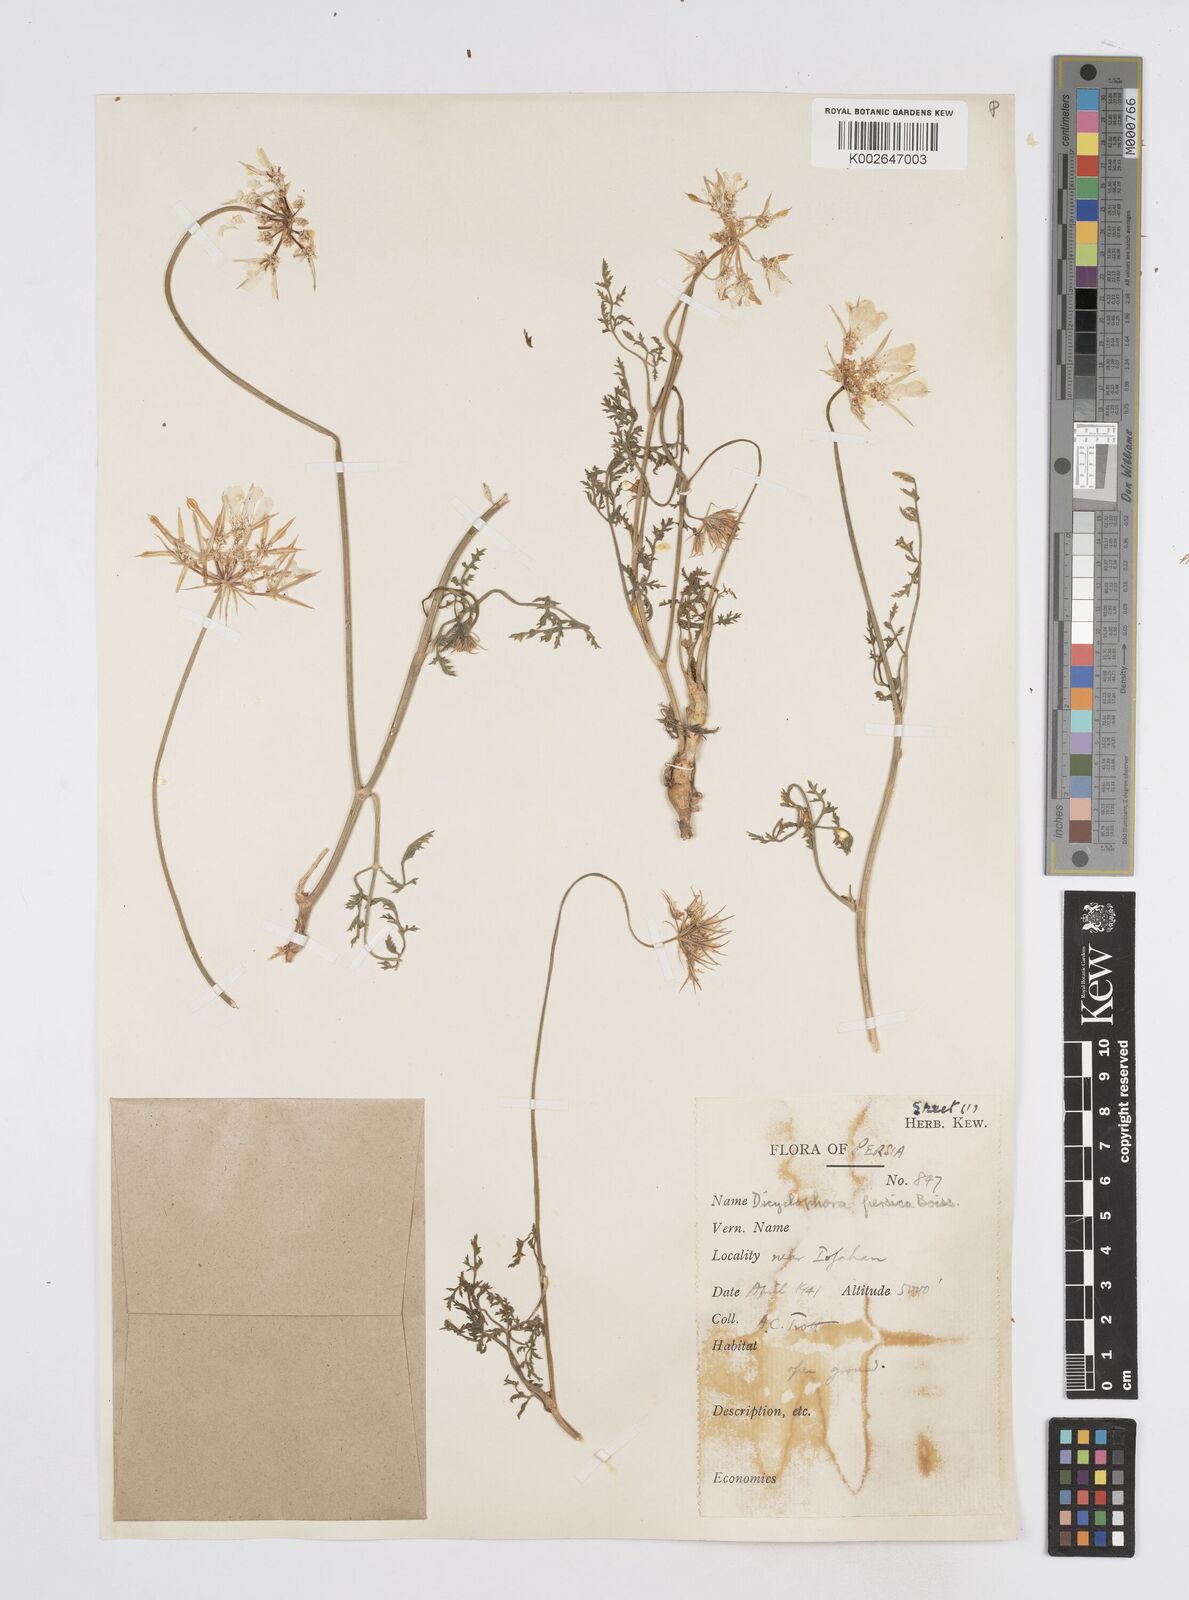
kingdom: Plantae
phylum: Tracheophyta
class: Magnoliopsida
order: Apiales
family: Apiaceae
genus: Dicyclophora
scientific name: Dicyclophora persica
